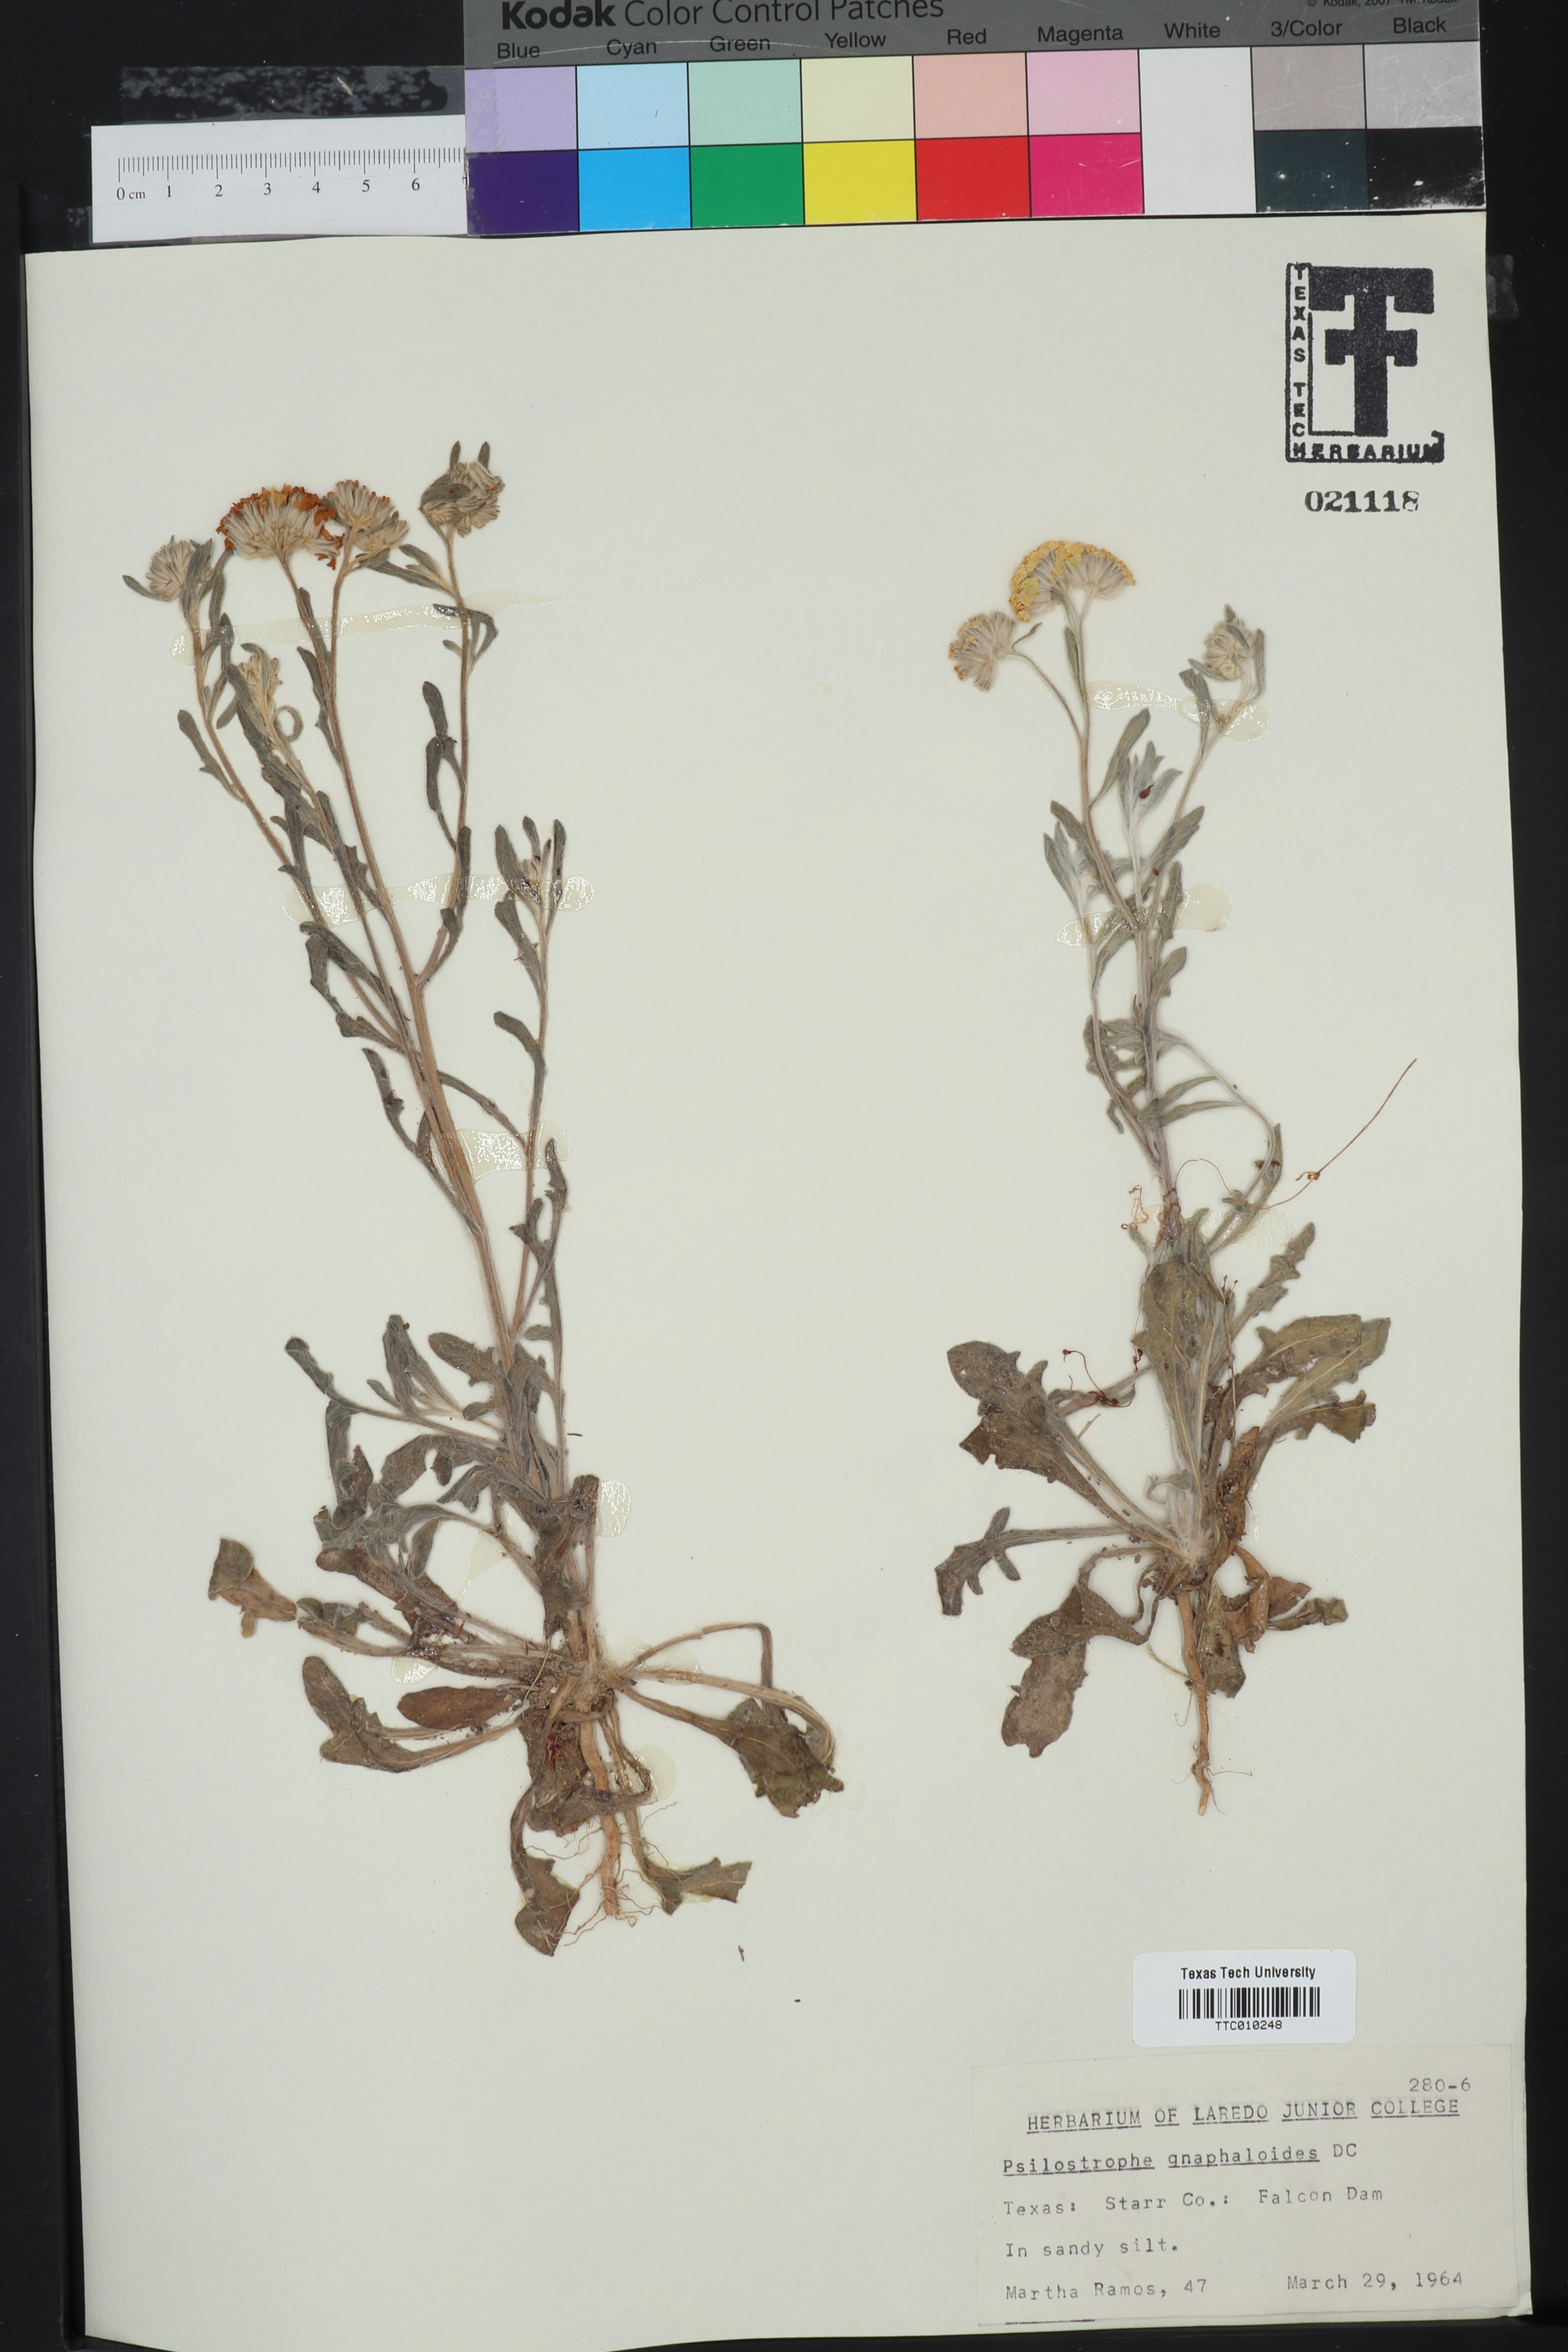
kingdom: Plantae
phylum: Tracheophyta
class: Magnoliopsida
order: Asterales
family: Asteraceae
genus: Psilostrophe
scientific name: Psilostrophe gnaphalioides
